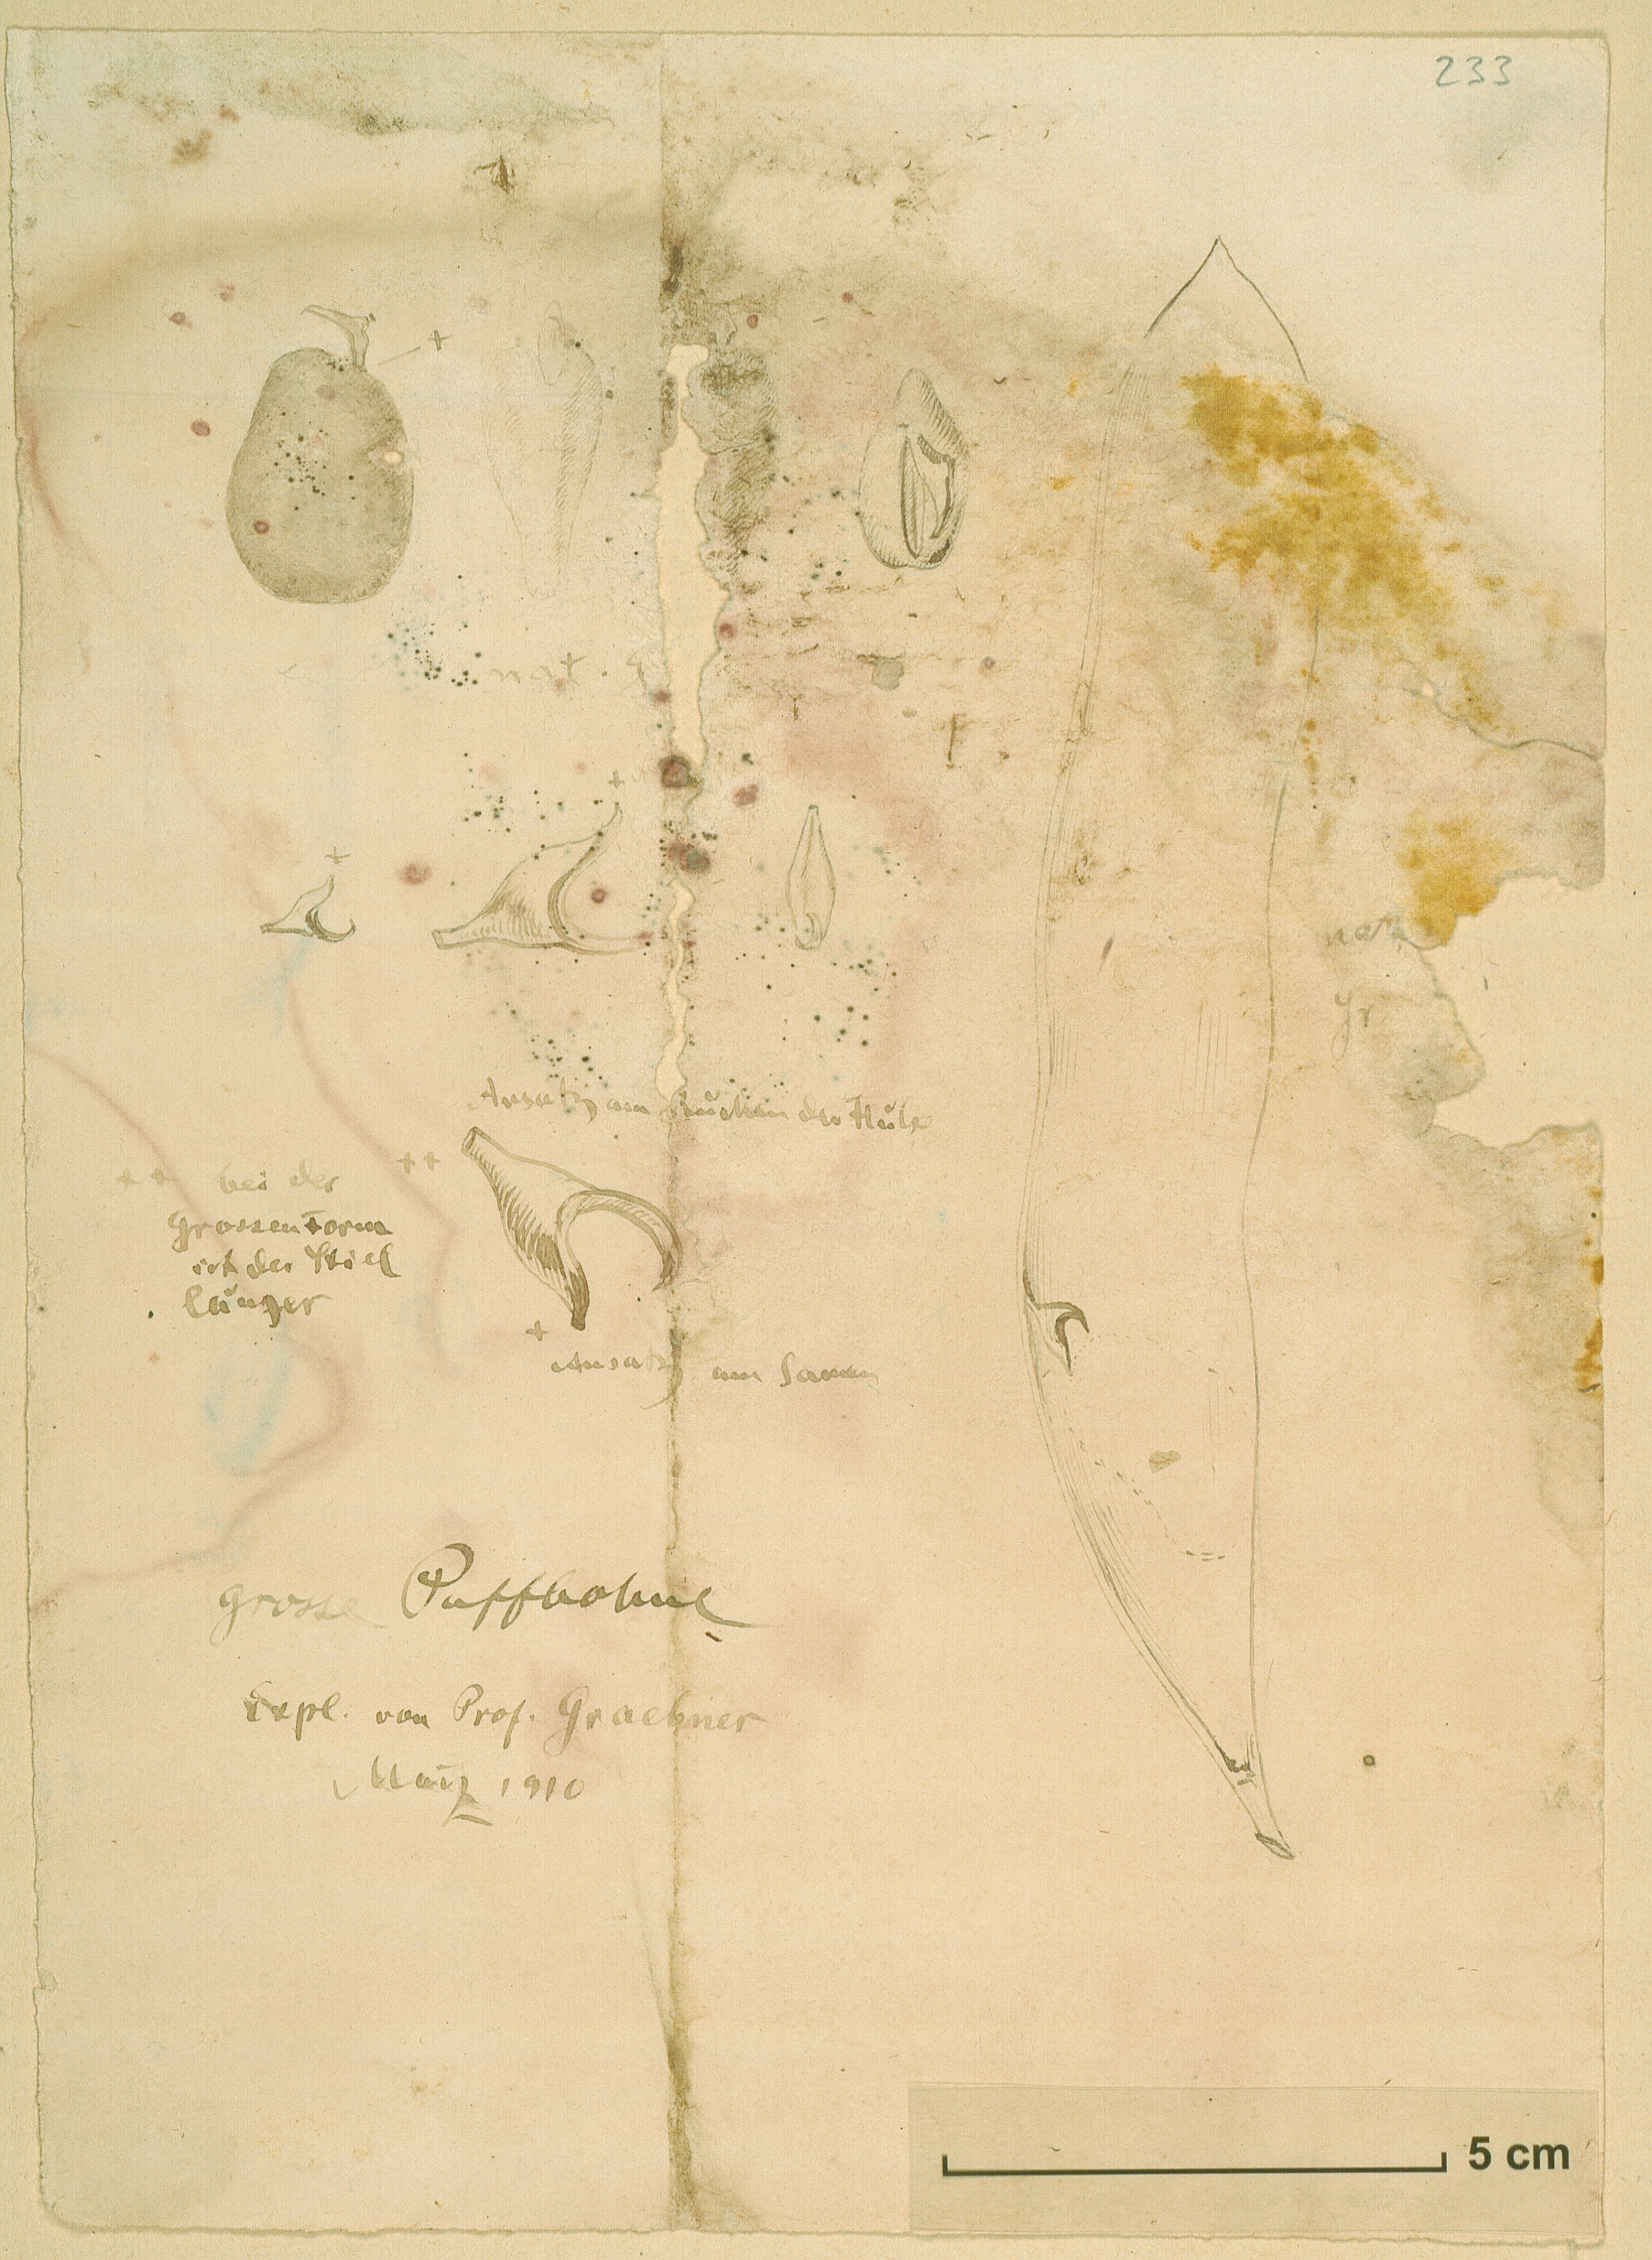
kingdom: Plantae
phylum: Tracheophyta
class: Magnoliopsida
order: Fabales
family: Fabaceae
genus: Vicia
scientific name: Vicia faba
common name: Broad bean
